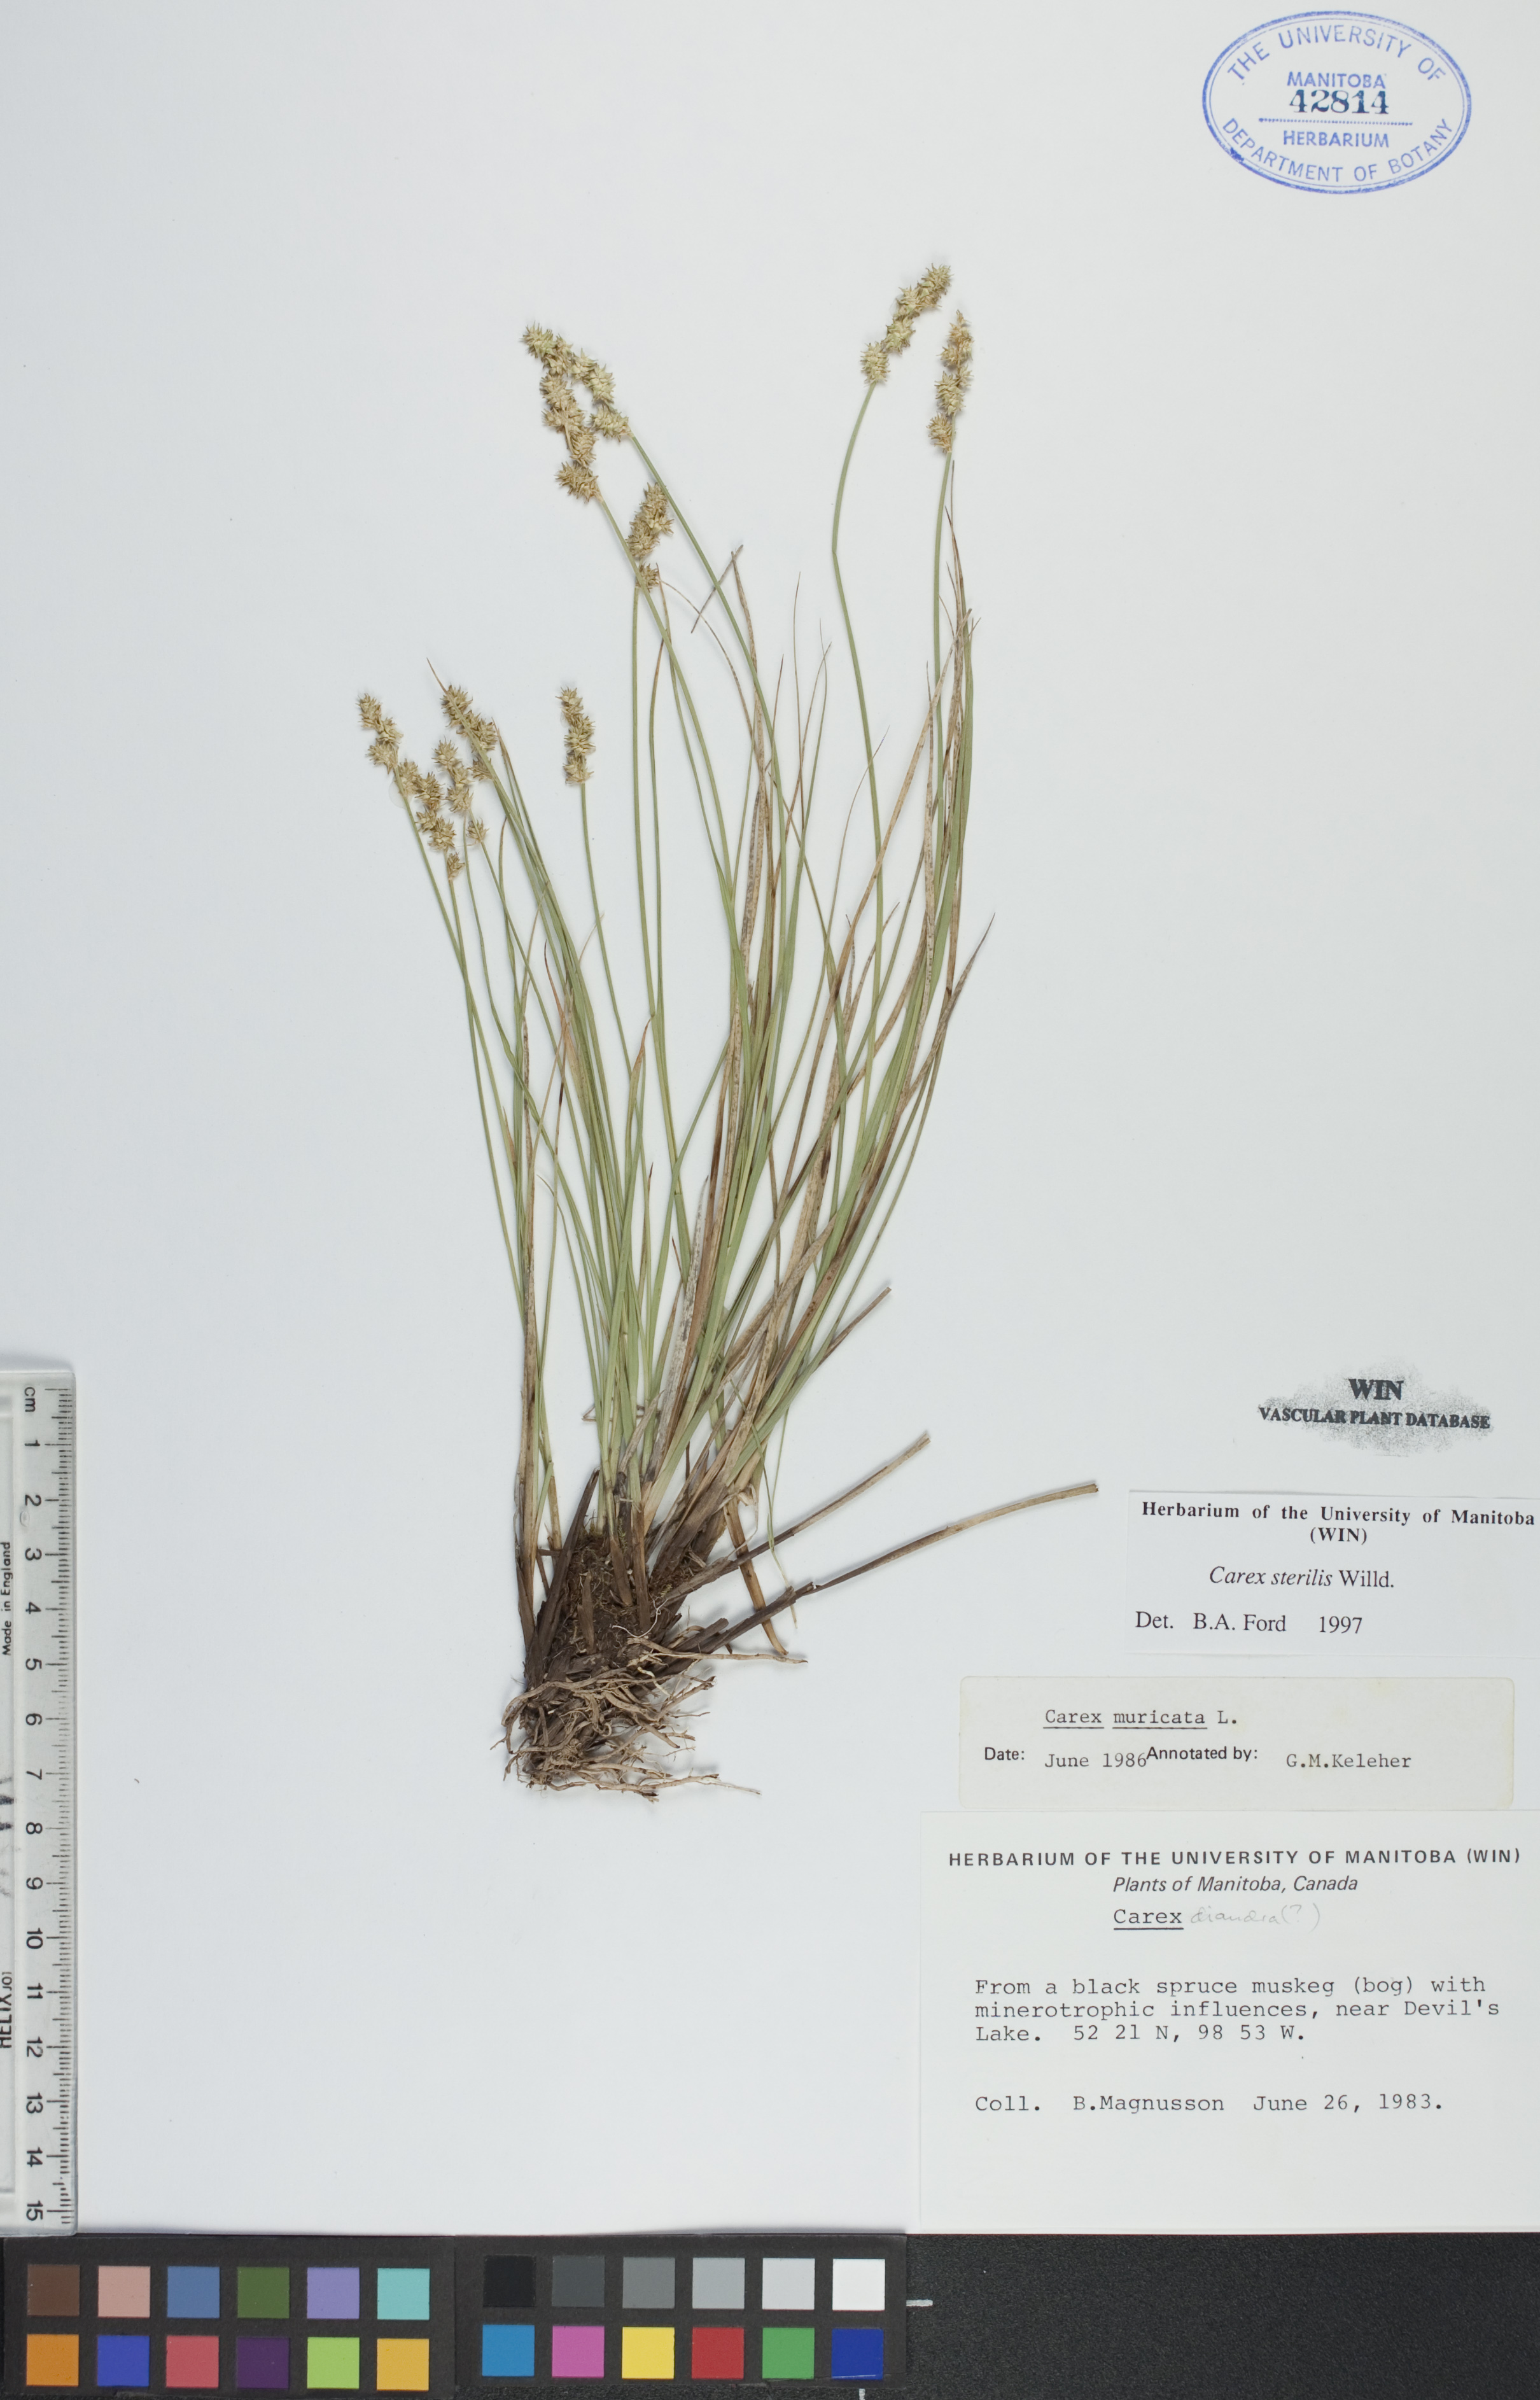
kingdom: Plantae
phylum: Tracheophyta
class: Liliopsida
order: Poales
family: Cyperaceae
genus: Carex
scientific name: Carex sterilis
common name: Dioecious sedge
